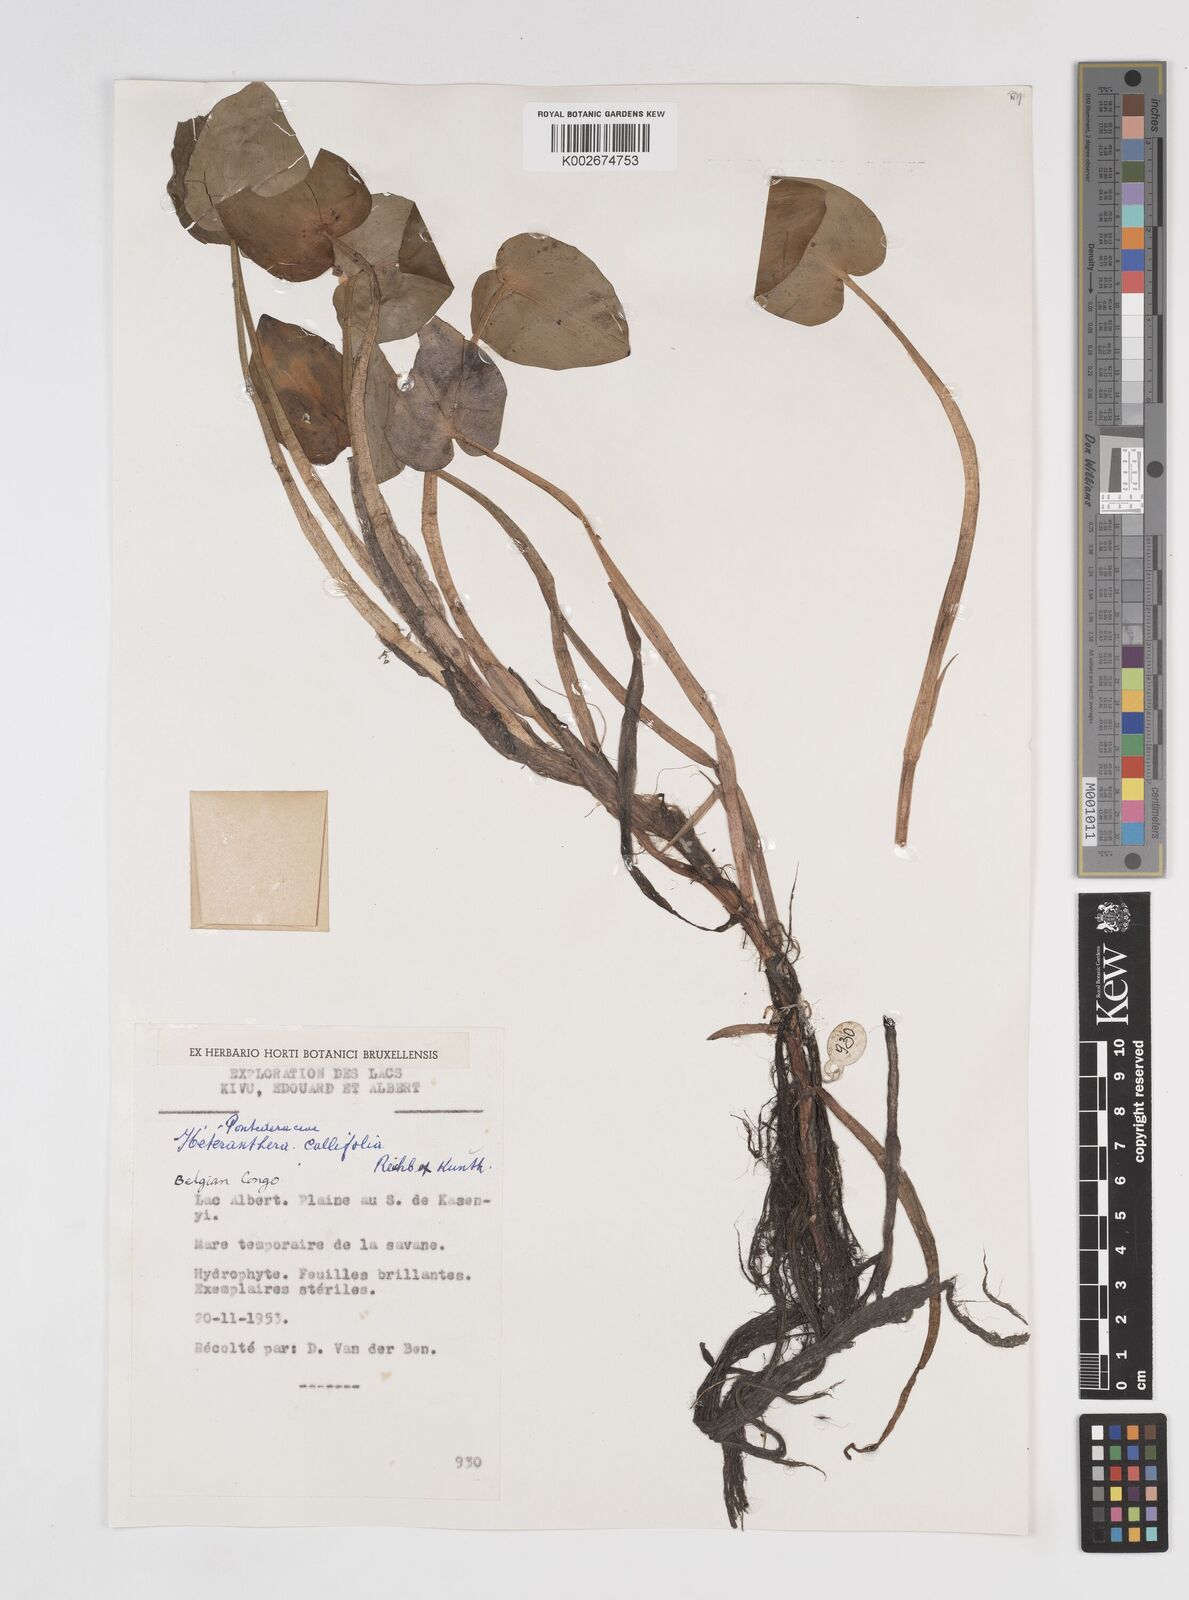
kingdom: Plantae
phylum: Tracheophyta
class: Liliopsida
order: Commelinales
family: Pontederiaceae
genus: Heteranthera
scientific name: Heteranthera callifolia
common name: Mud plantain
